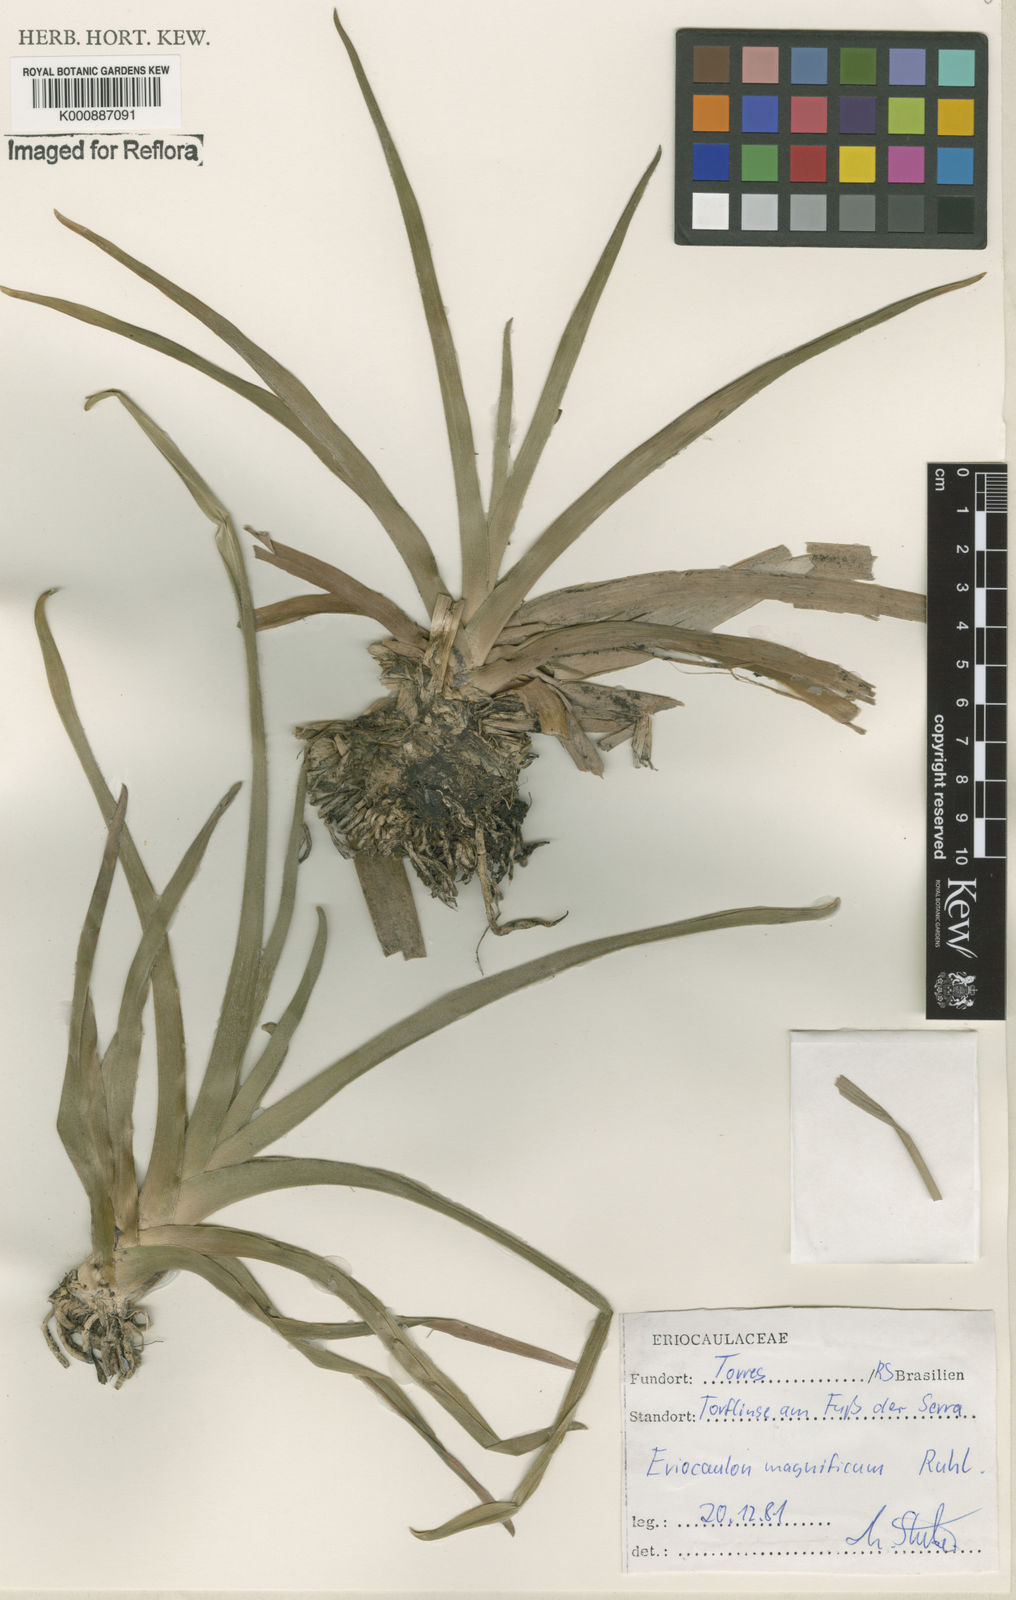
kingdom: Plantae
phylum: Tracheophyta
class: Liliopsida
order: Poales
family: Eriocaulaceae
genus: Eriocaulon
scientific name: Eriocaulon magnificum
